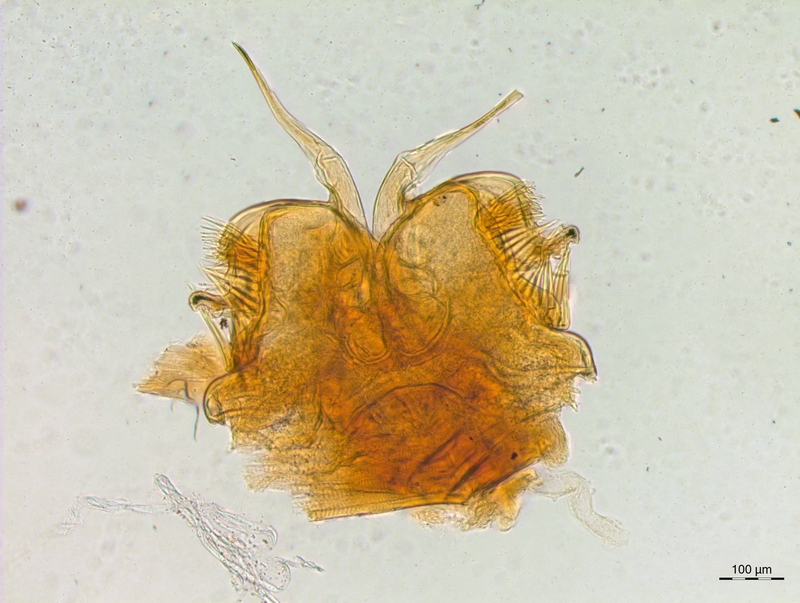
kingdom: Animalia
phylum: Arthropoda
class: Diplopoda
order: Chordeumatida
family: Craspedosomatidae
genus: Craspedosoma
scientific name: Craspedosoma rawlinsii
